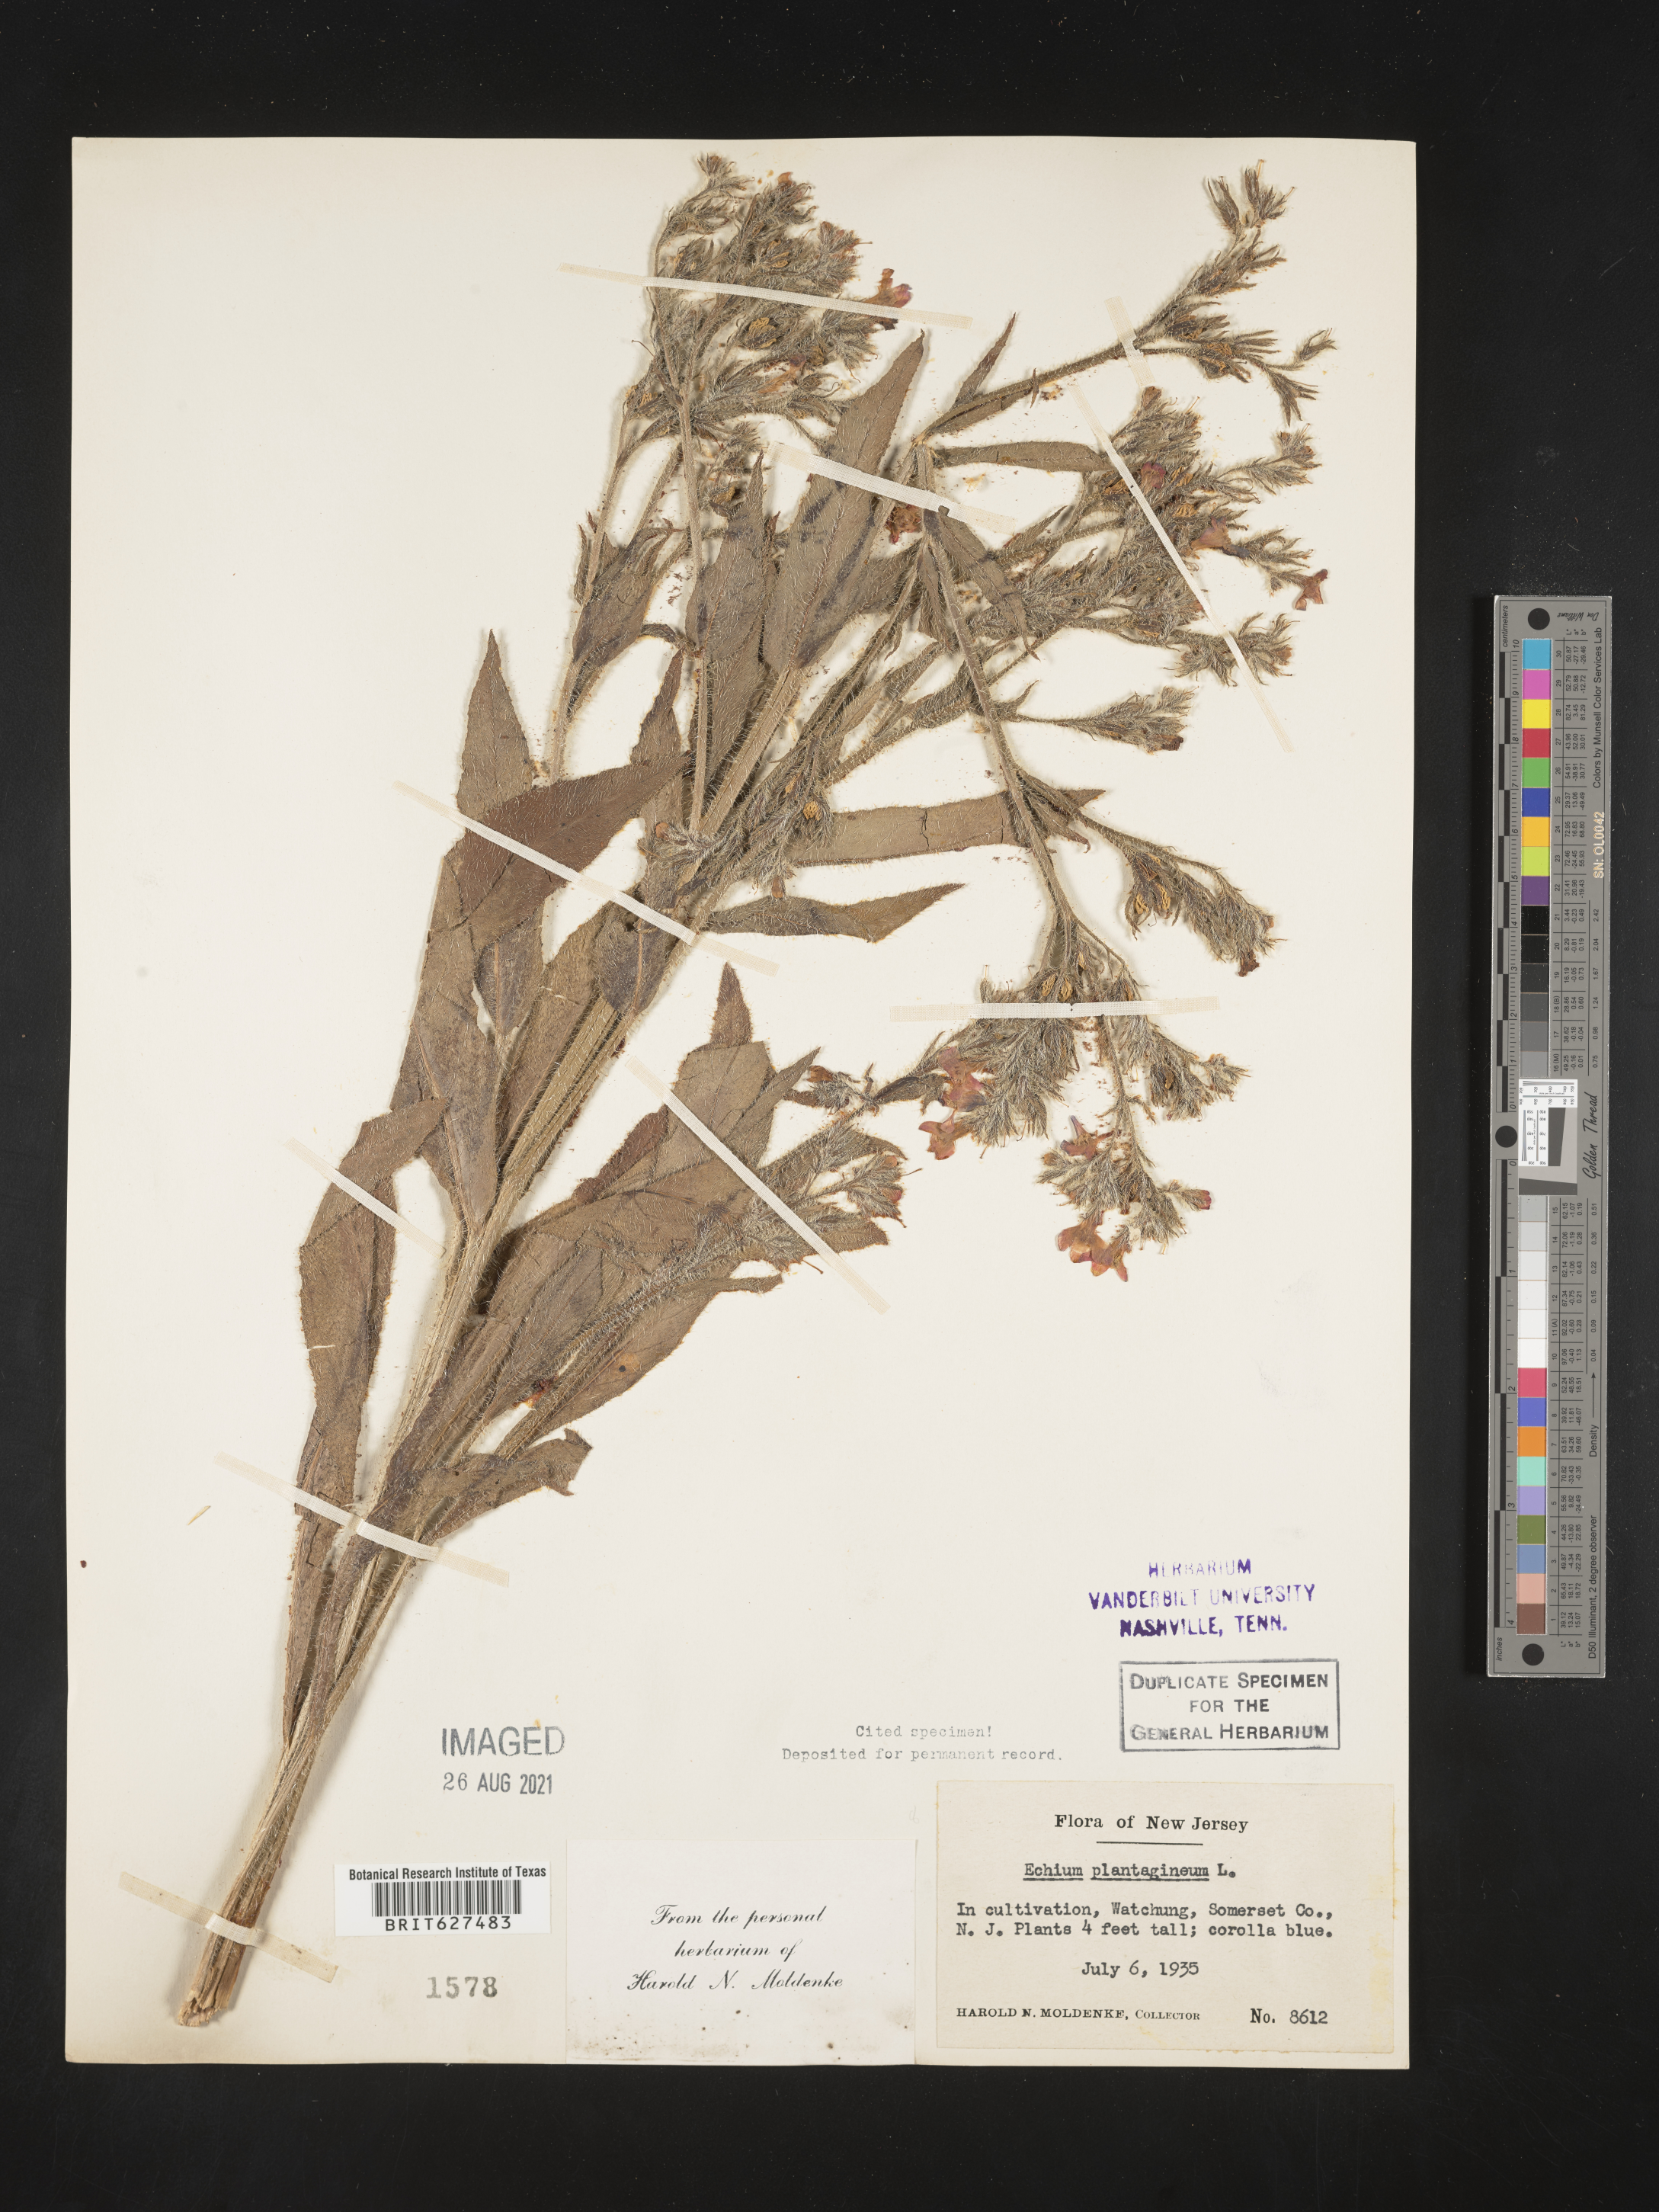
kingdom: Plantae
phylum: Tracheophyta
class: Magnoliopsida
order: Boraginales
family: Boraginaceae
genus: Echium
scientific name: Echium plantagineum
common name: Purple viper's-bugloss
